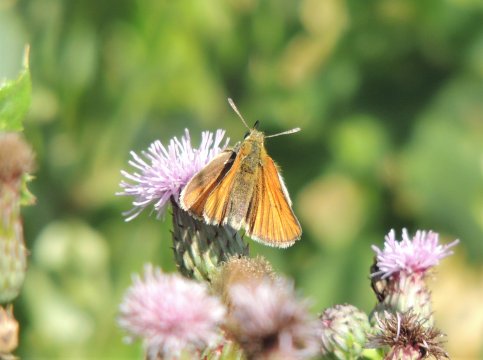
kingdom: Animalia
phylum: Arthropoda
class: Insecta
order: Lepidoptera
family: Hesperiidae
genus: Thymelicus
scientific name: Thymelicus lineola
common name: European Skipper
